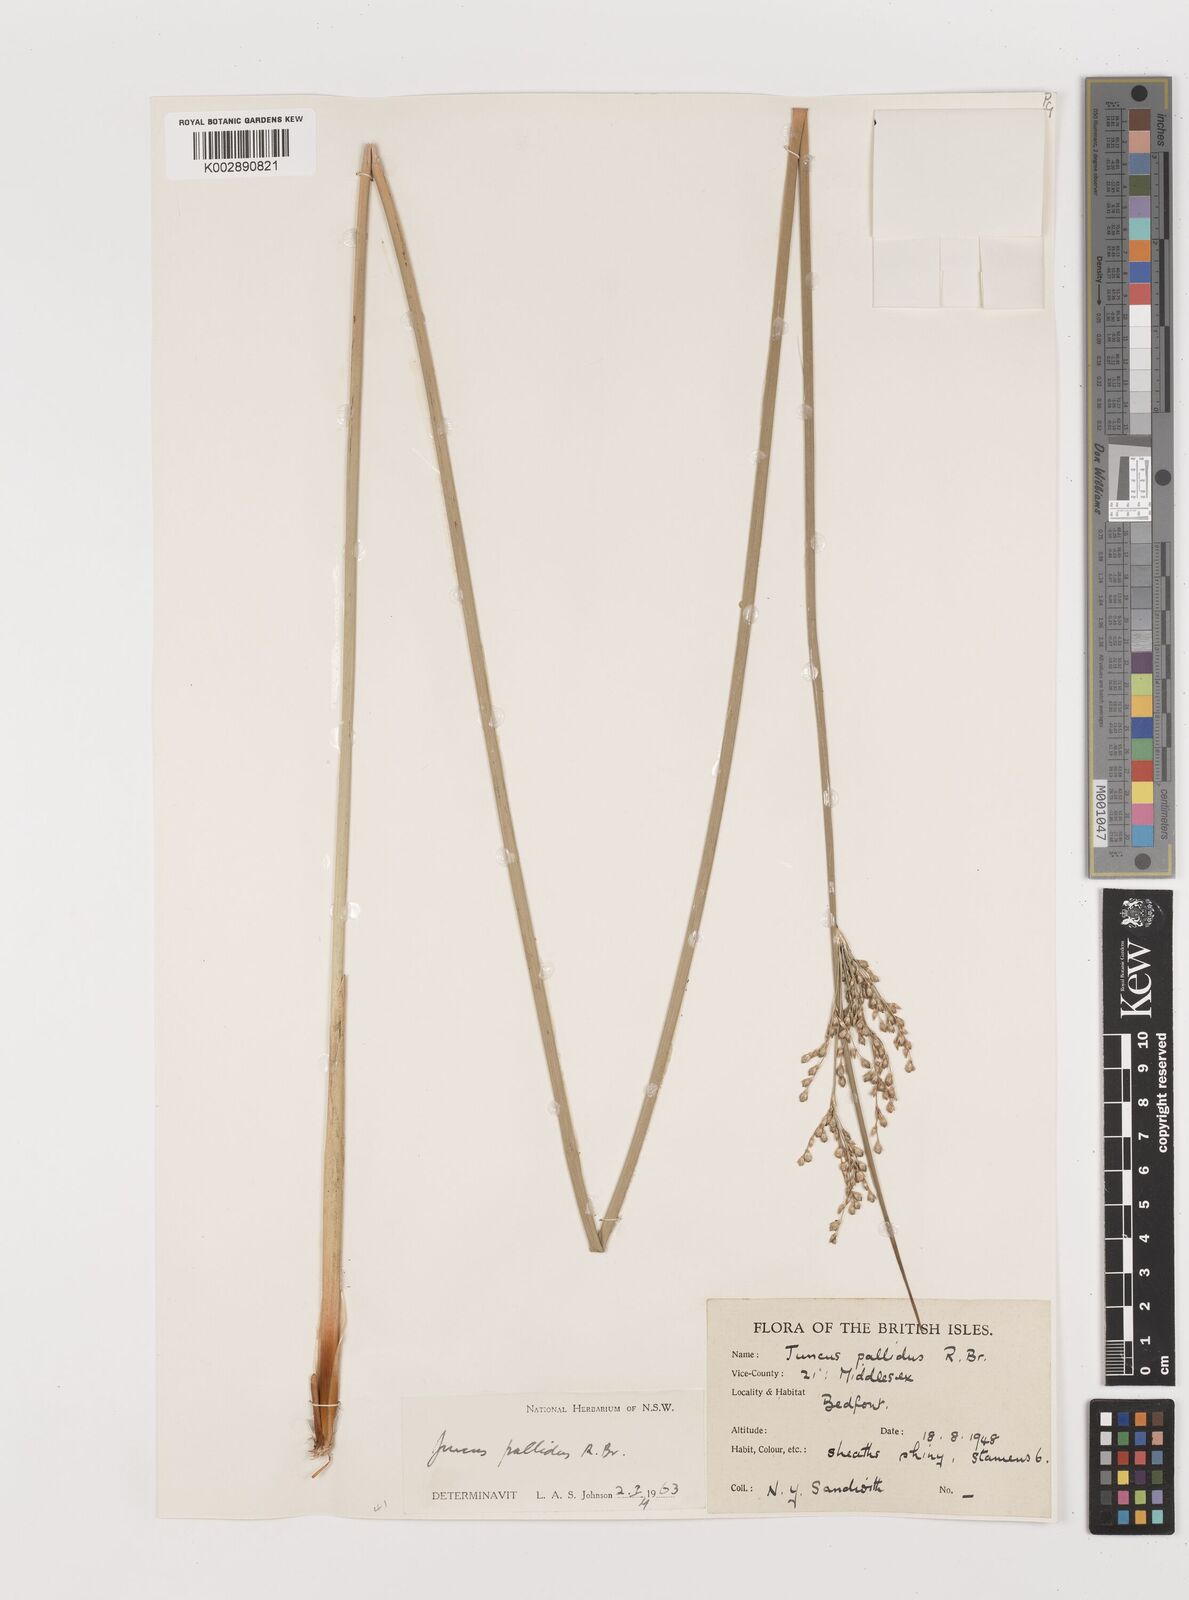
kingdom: Plantae
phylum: Tracheophyta
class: Liliopsida
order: Poales
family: Juncaceae
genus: Juncus
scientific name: Juncus pallidus
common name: Great soft-rush
